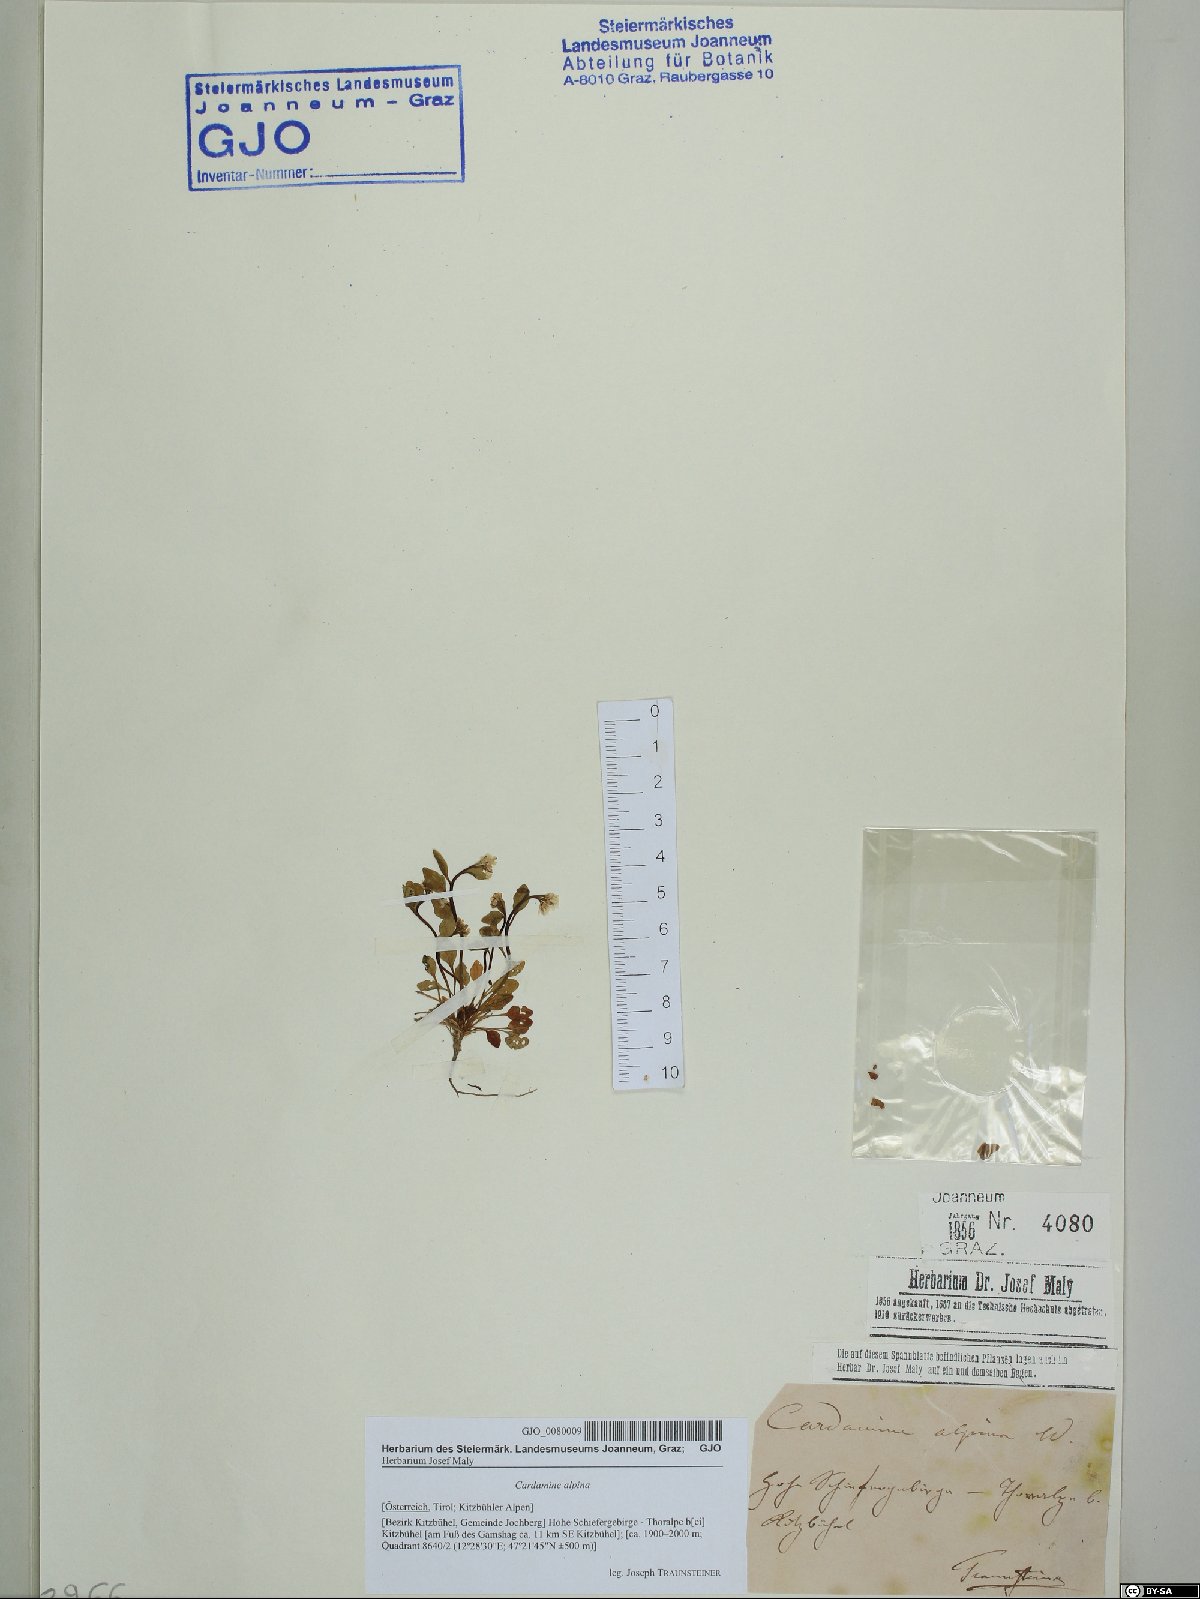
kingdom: Plantae
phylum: Tracheophyta
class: Magnoliopsida
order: Brassicales
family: Brassicaceae
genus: Cardamine
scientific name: Cardamine bellidifolia
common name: Alpine bittercress
